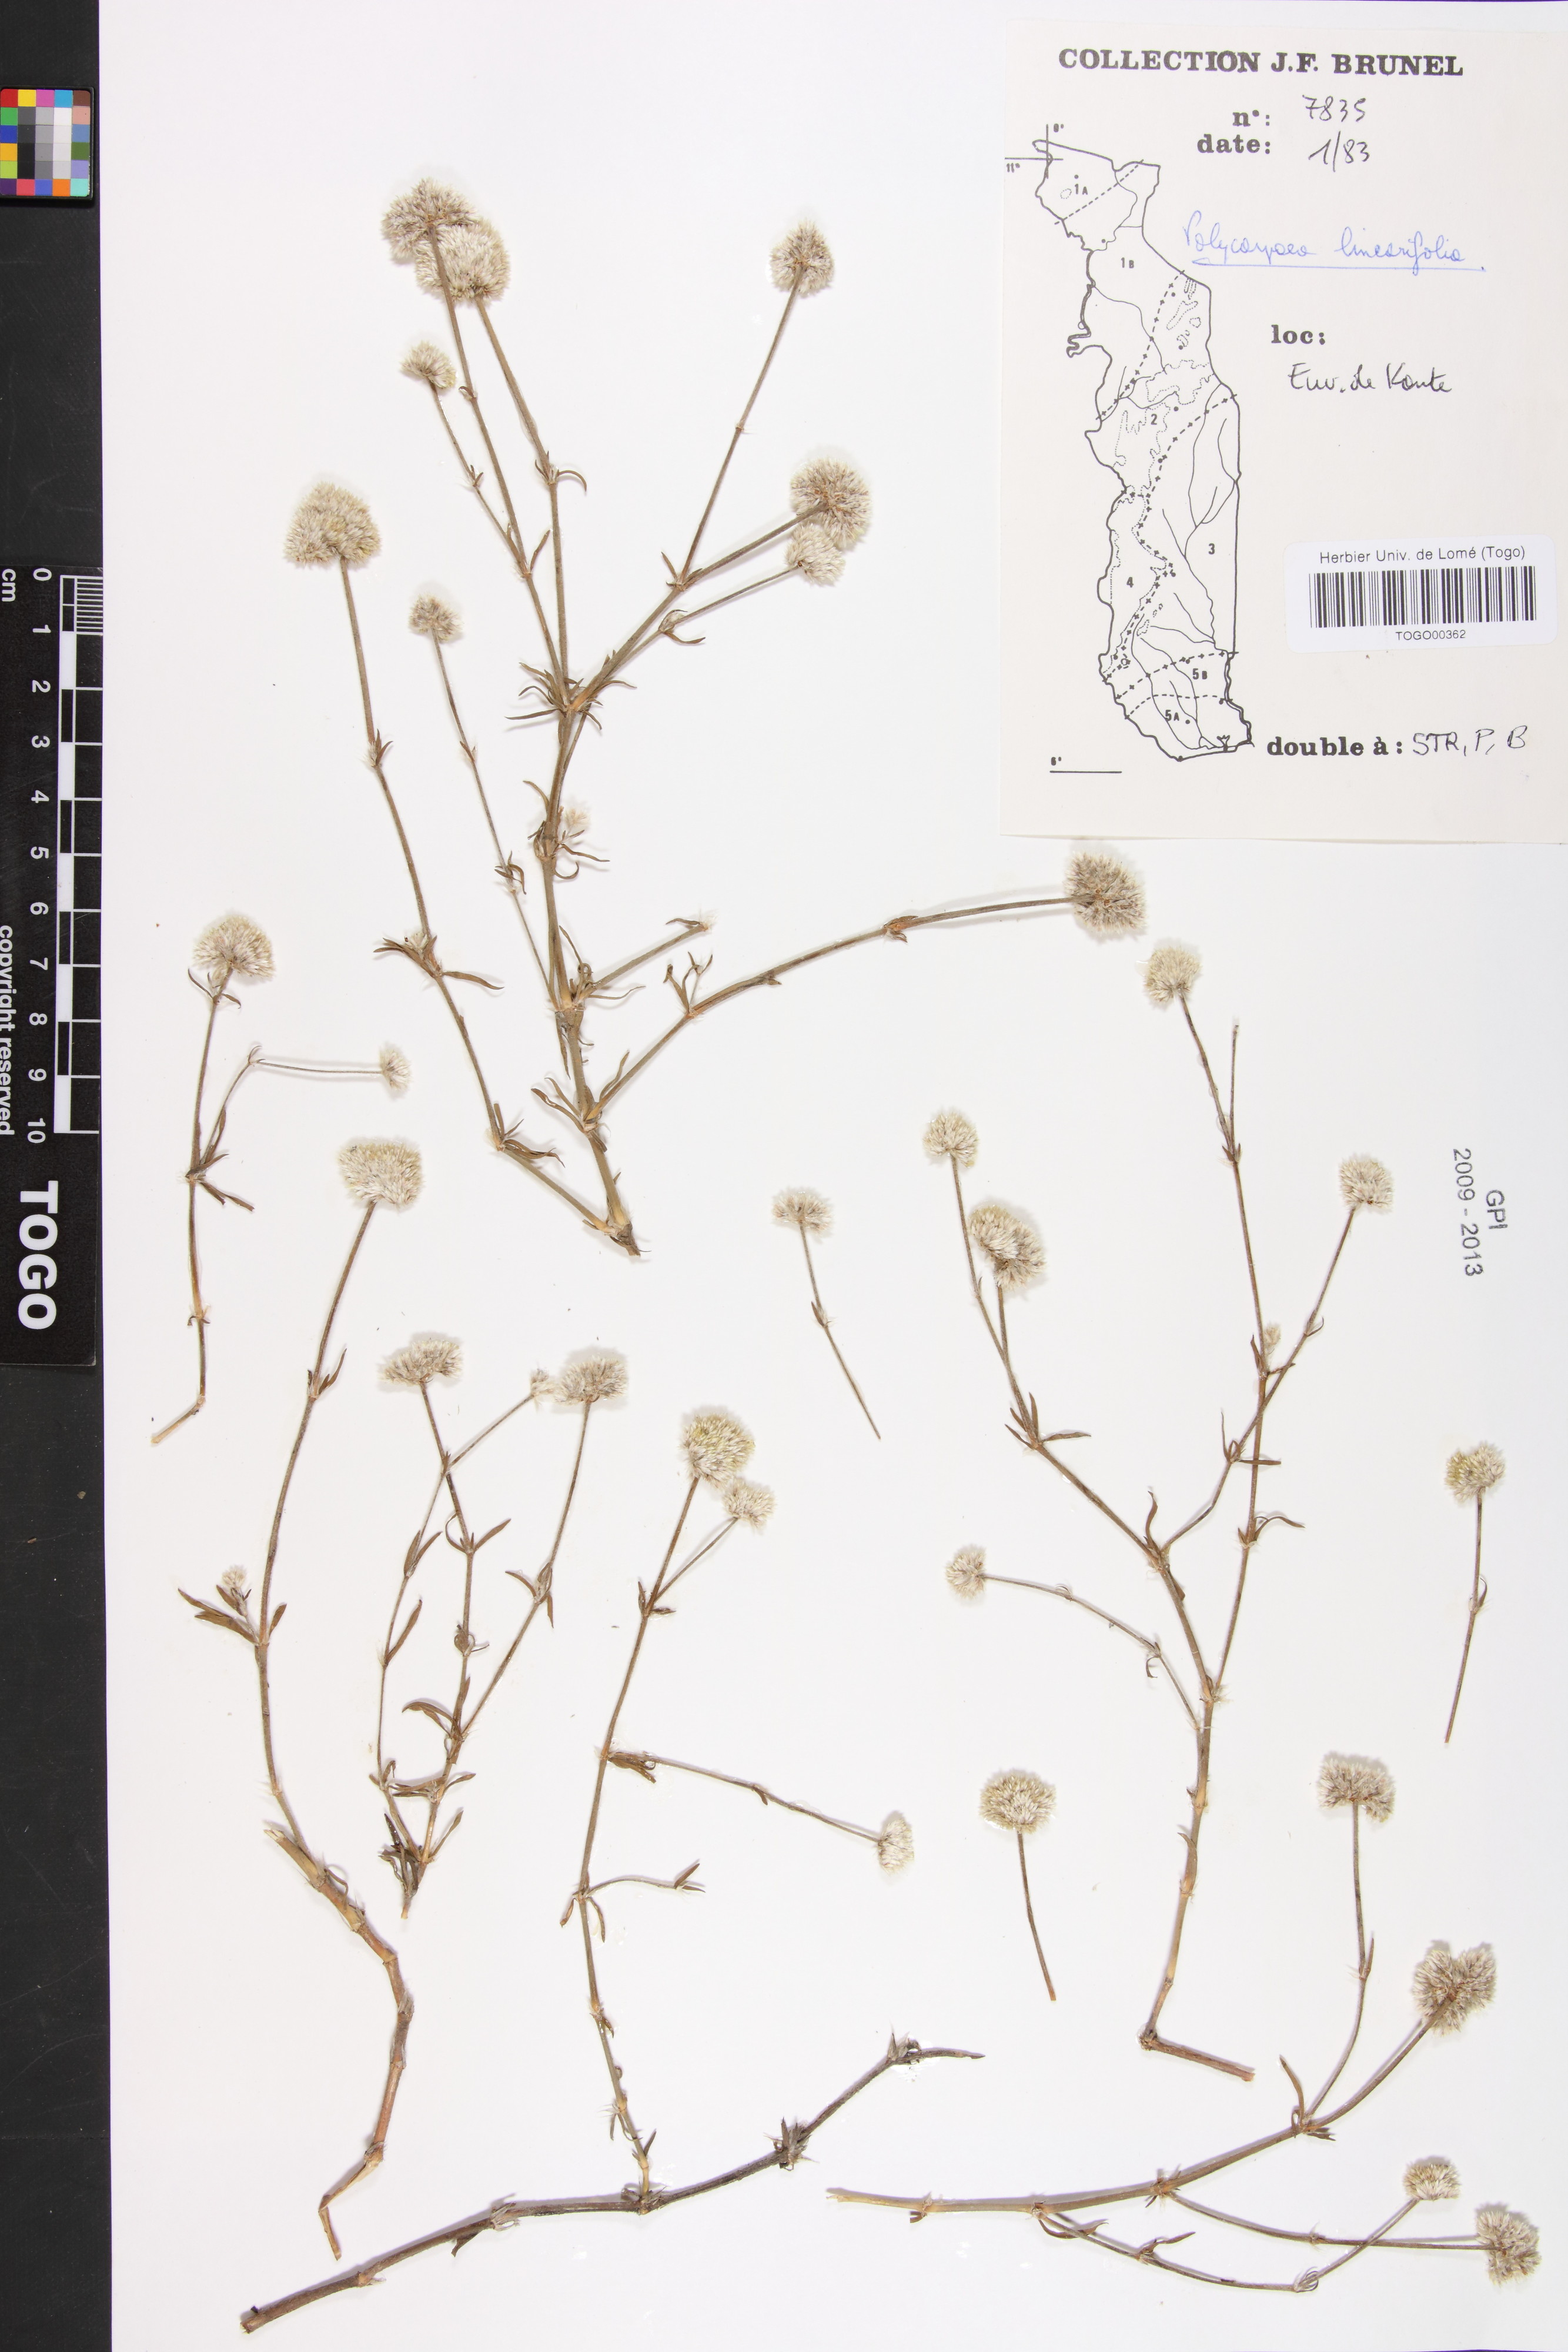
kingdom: Plantae
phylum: Tracheophyta
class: Magnoliopsida
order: Caryophyllales
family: Caryophyllaceae
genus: Polycarpaea
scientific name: Polycarpaea linearifolia
